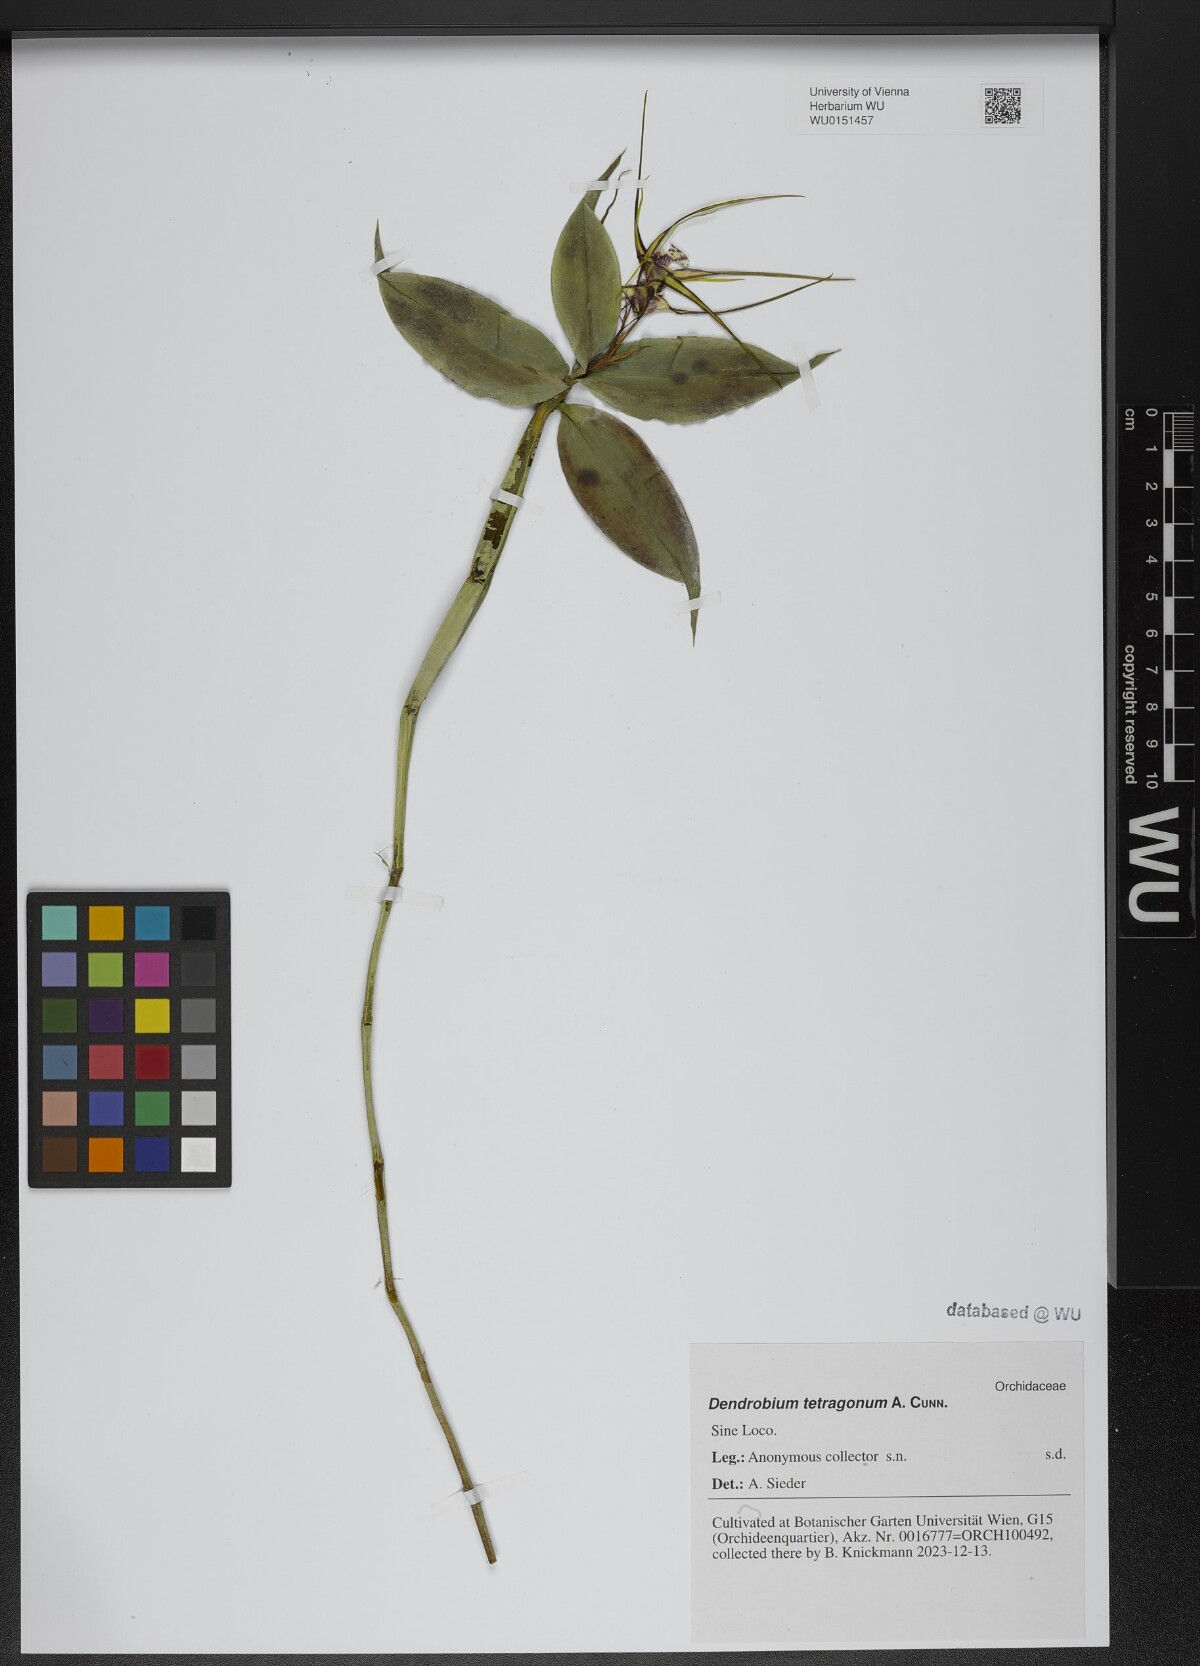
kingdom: Plantae
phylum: Tracheophyta
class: Liliopsida
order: Asparagales
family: Orchidaceae
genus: Dendrobium
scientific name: Dendrobium tetragonum
